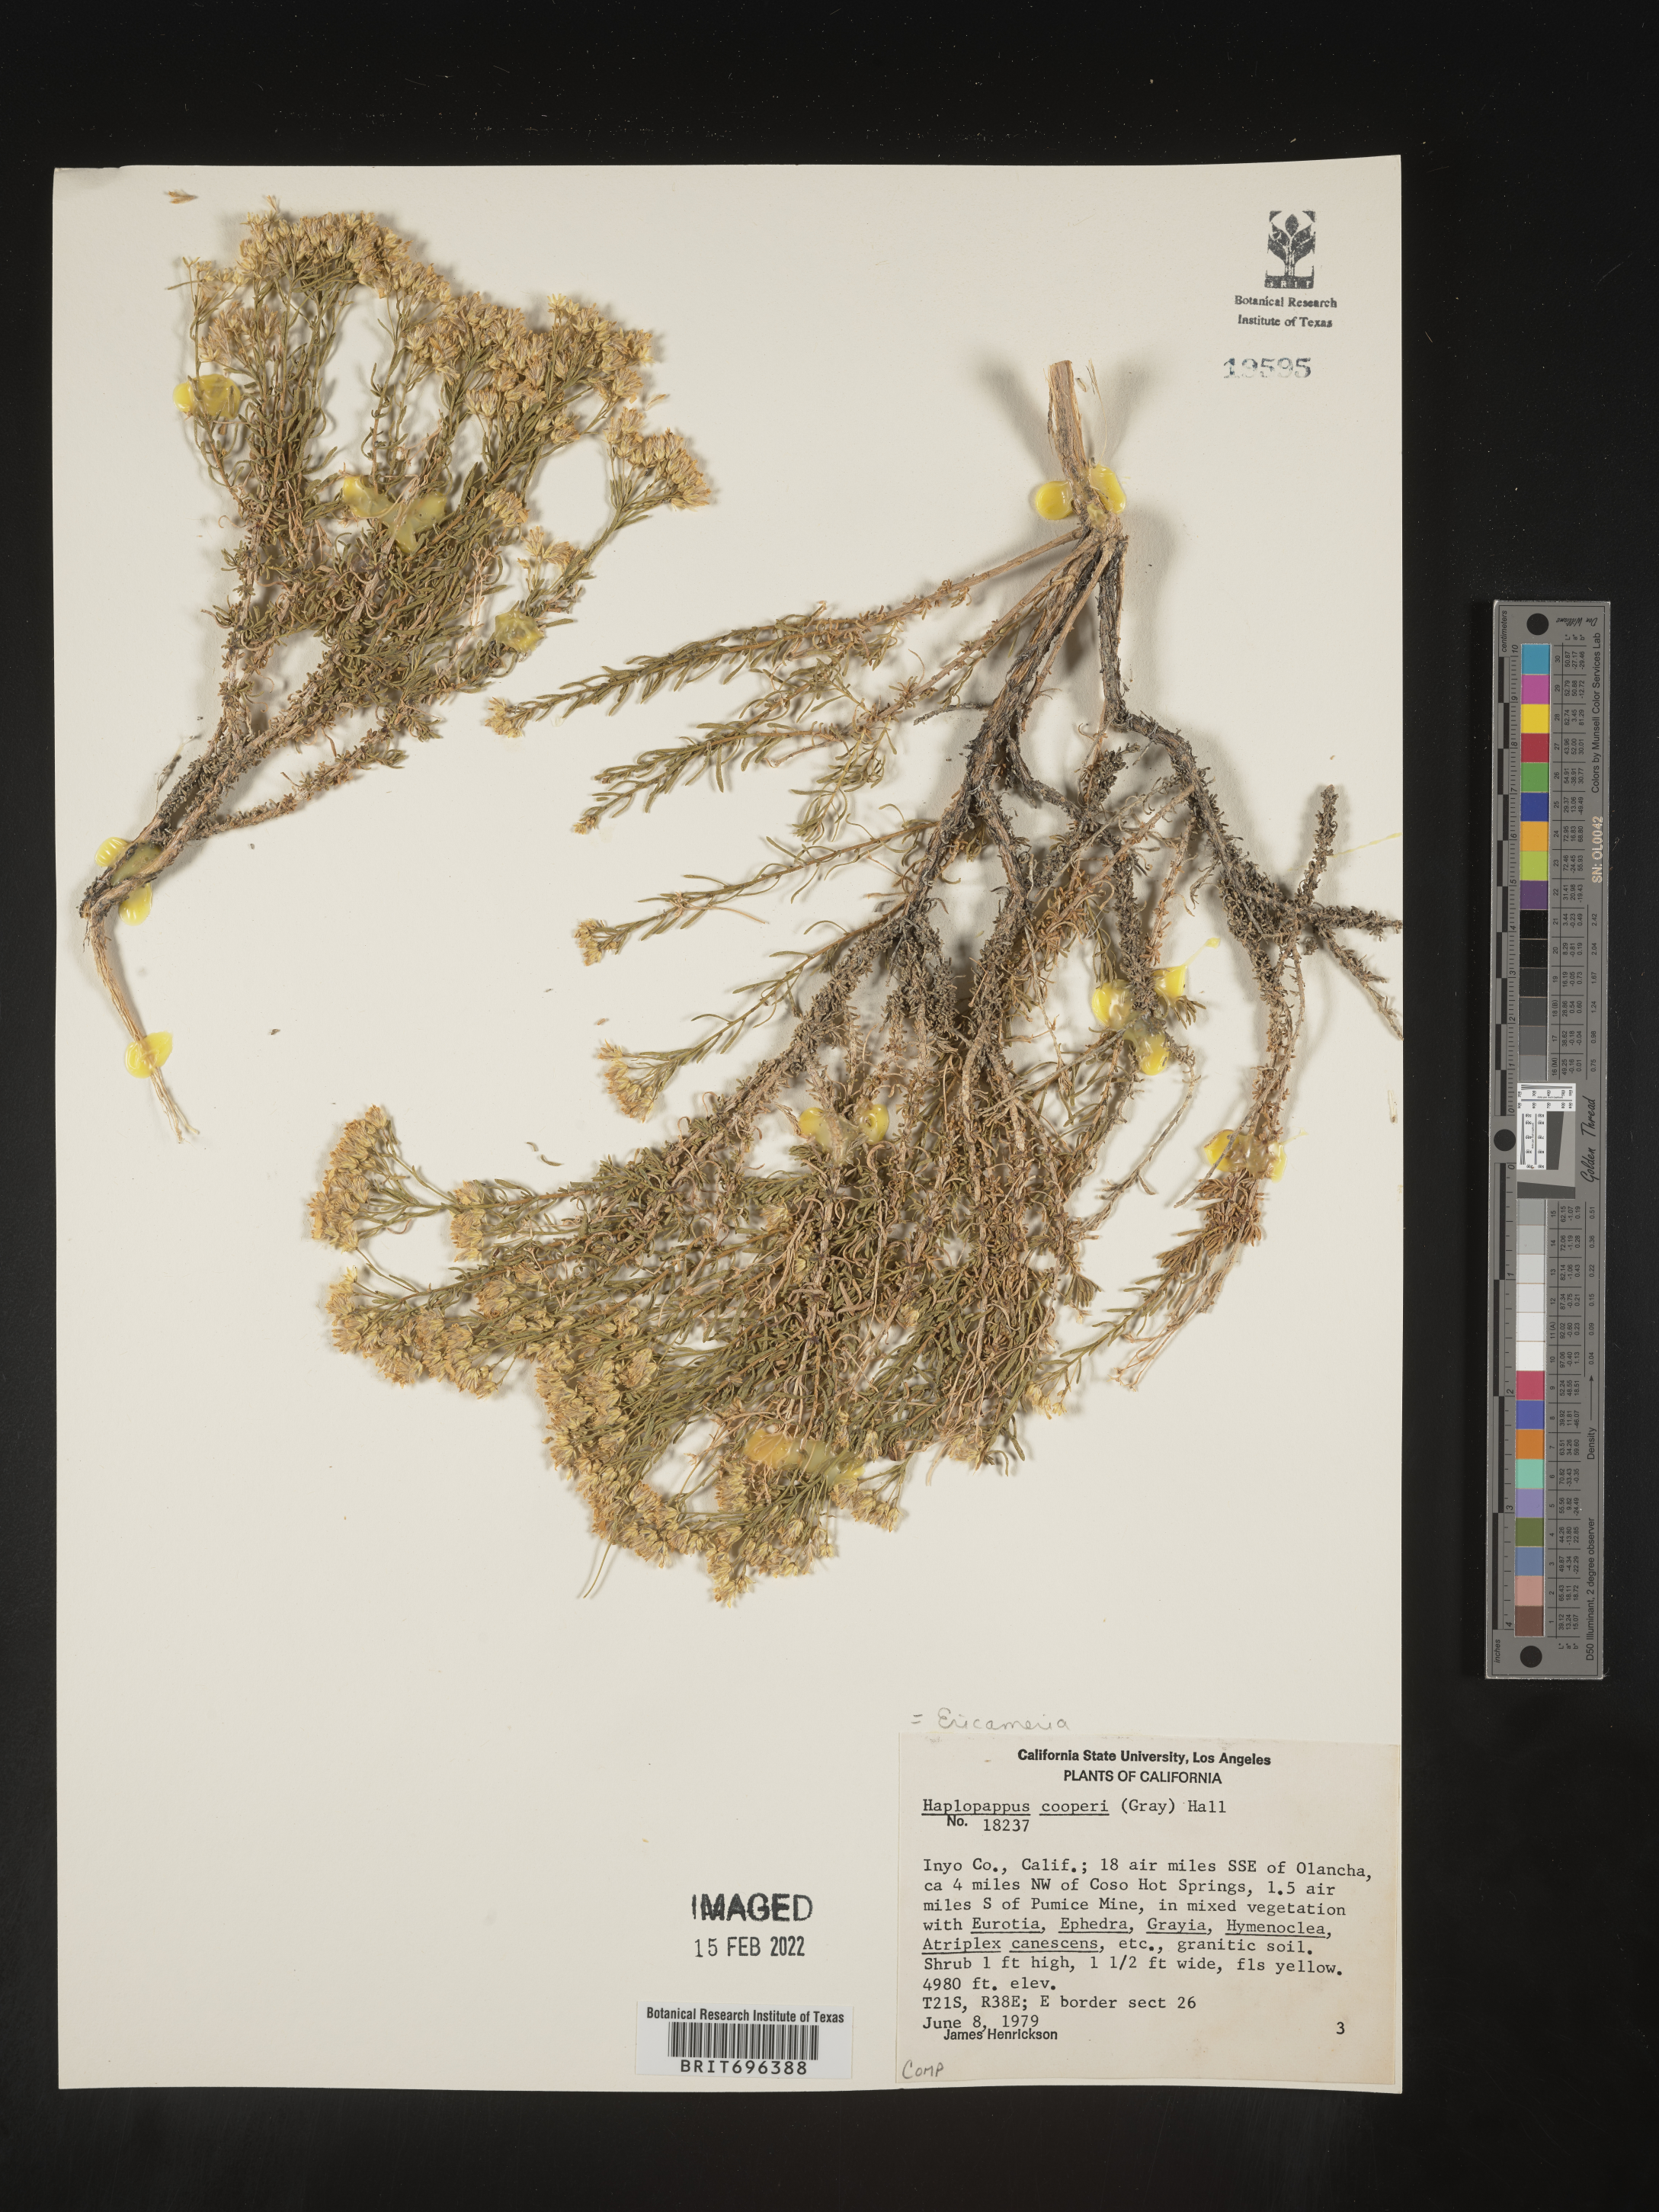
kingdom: Plantae
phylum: Tracheophyta
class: Magnoliopsida
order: Asterales
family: Asteraceae
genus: Ericameria
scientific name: Ericameria cooperi
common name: Cooper's goldenbush
